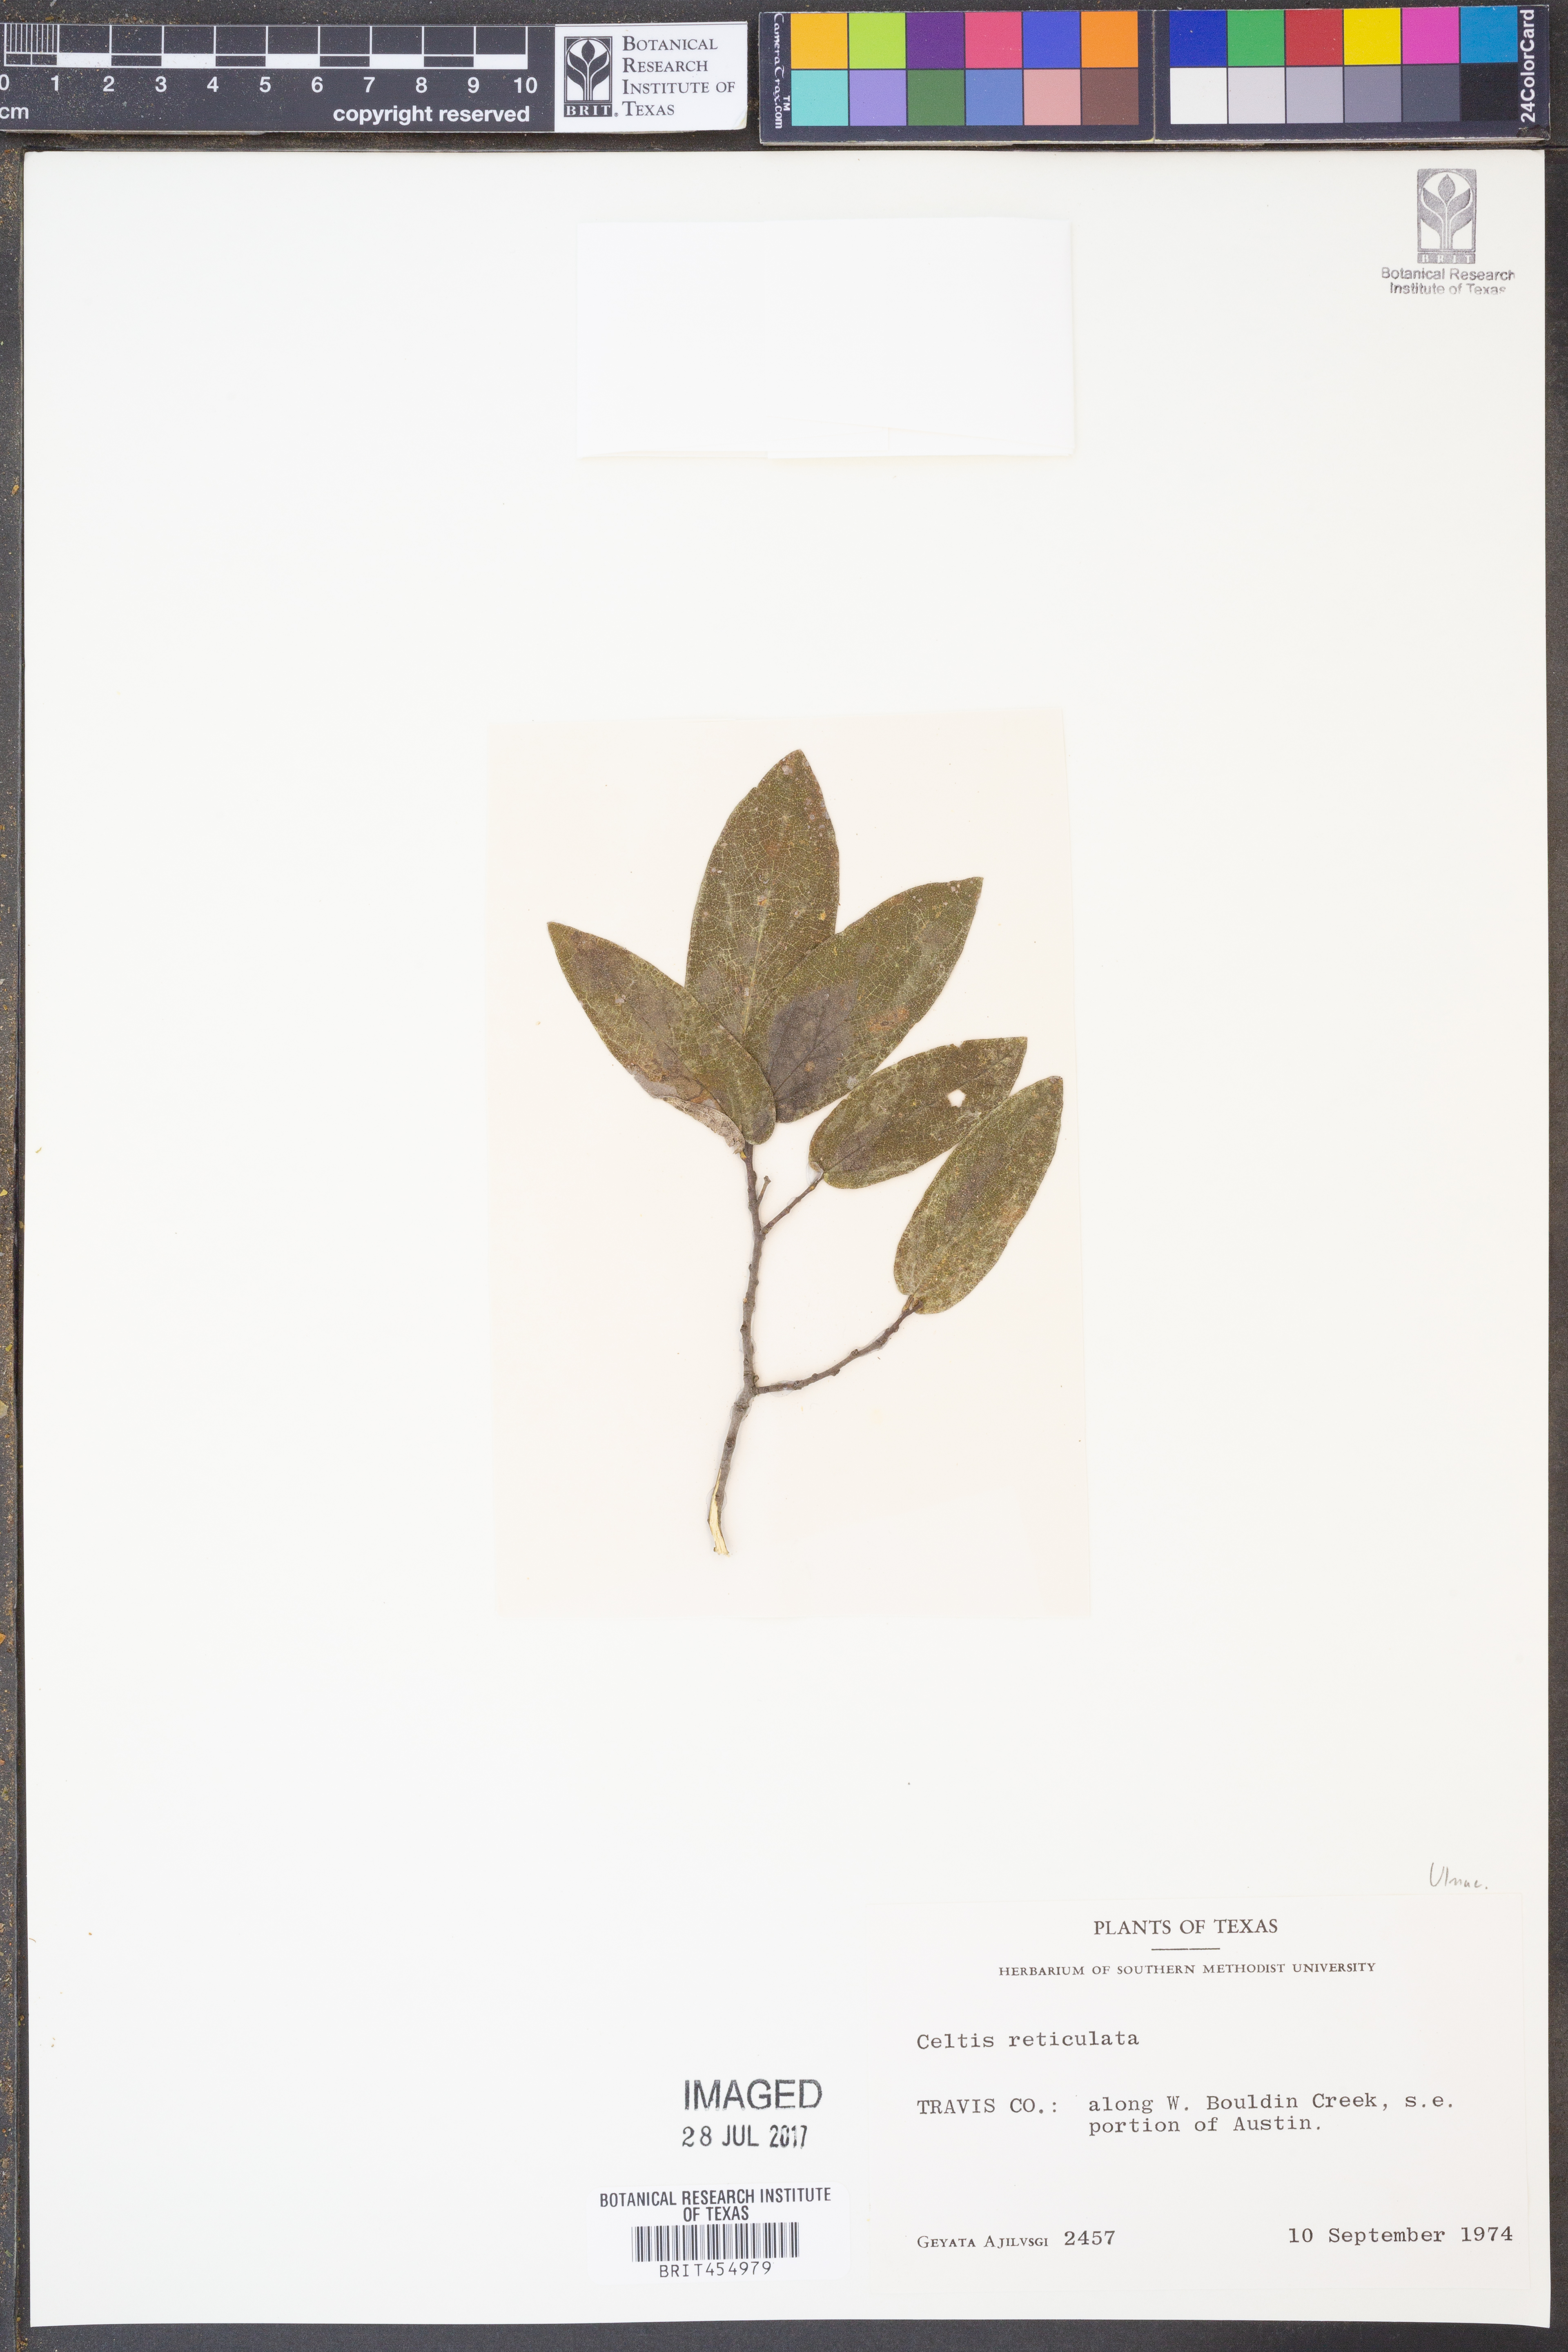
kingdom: Plantae
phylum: Tracheophyta
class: Magnoliopsida
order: Rosales
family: Cannabaceae
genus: Celtis
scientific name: Celtis reticulata
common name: Netleaf hackberry
